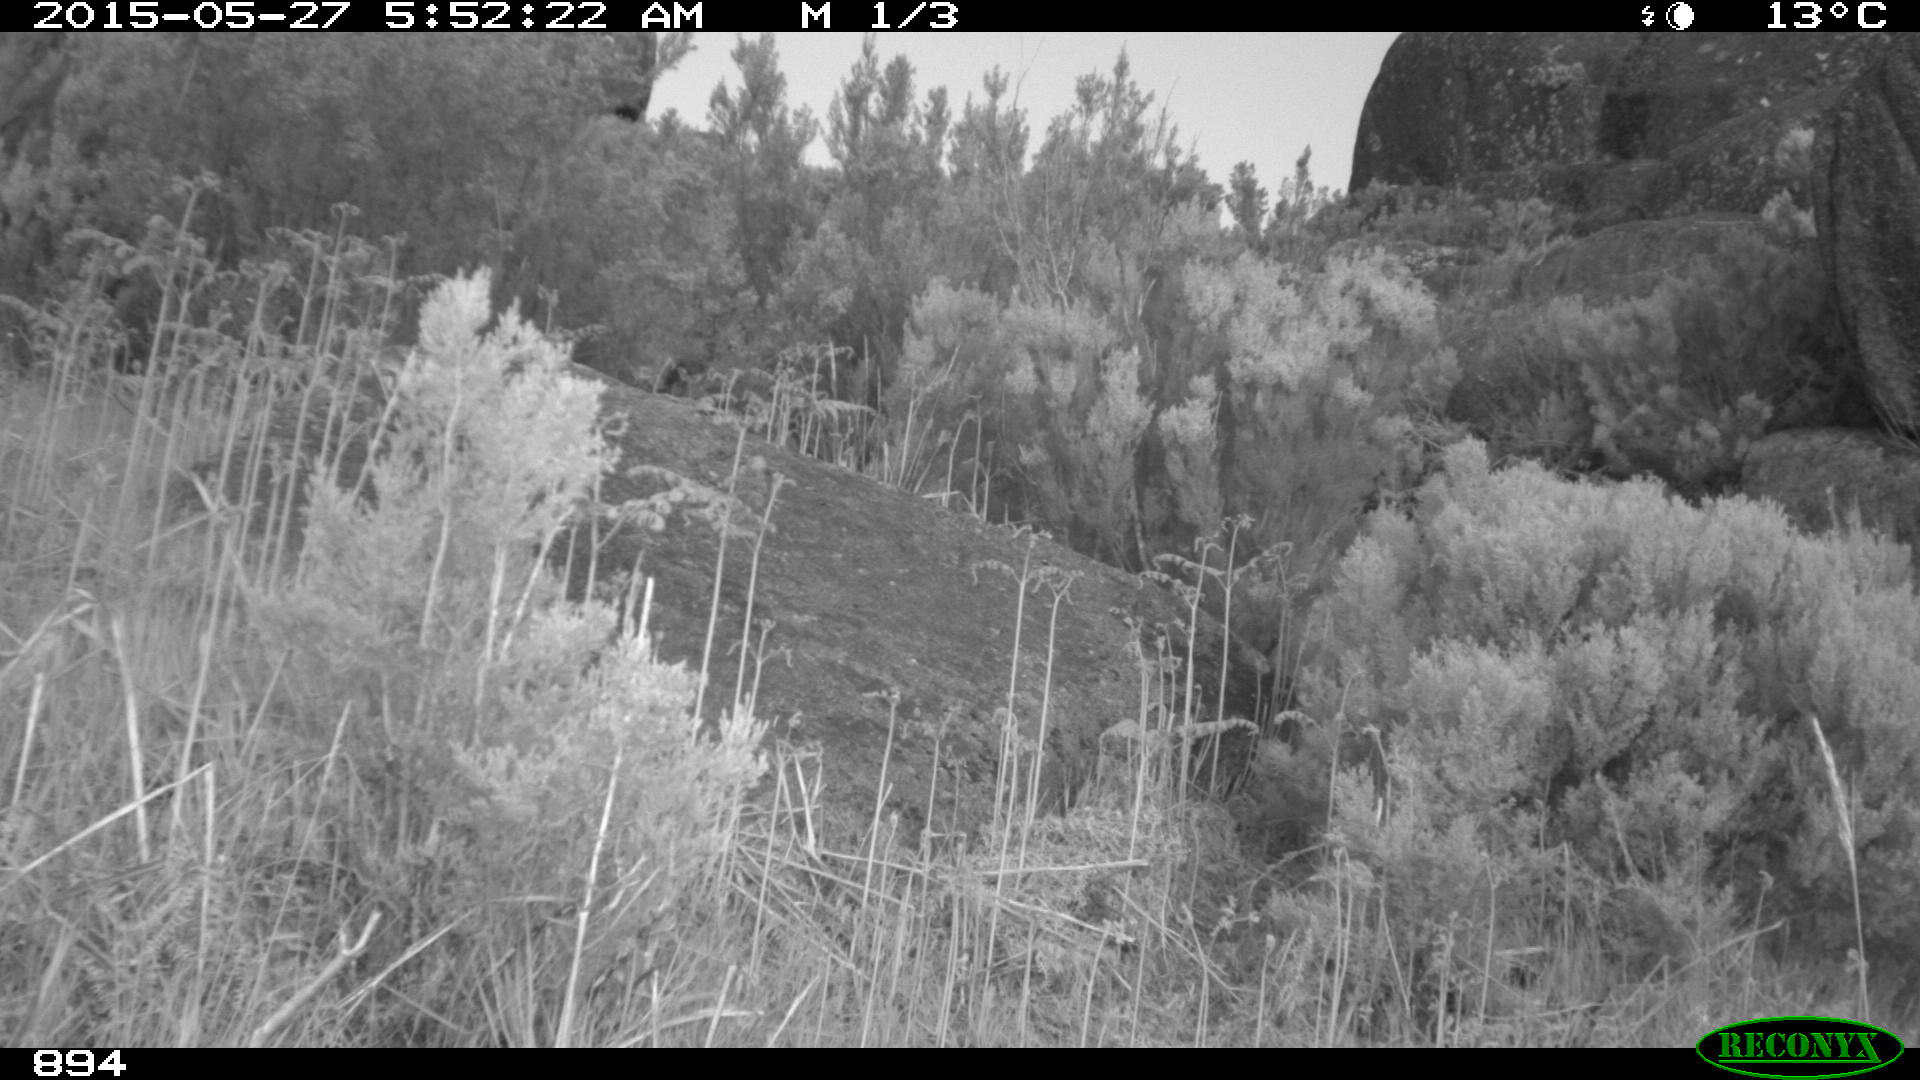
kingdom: Animalia
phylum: Chordata
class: Mammalia
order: Artiodactyla
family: Cervidae
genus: Capreolus
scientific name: Capreolus capreolus
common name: Western roe deer
